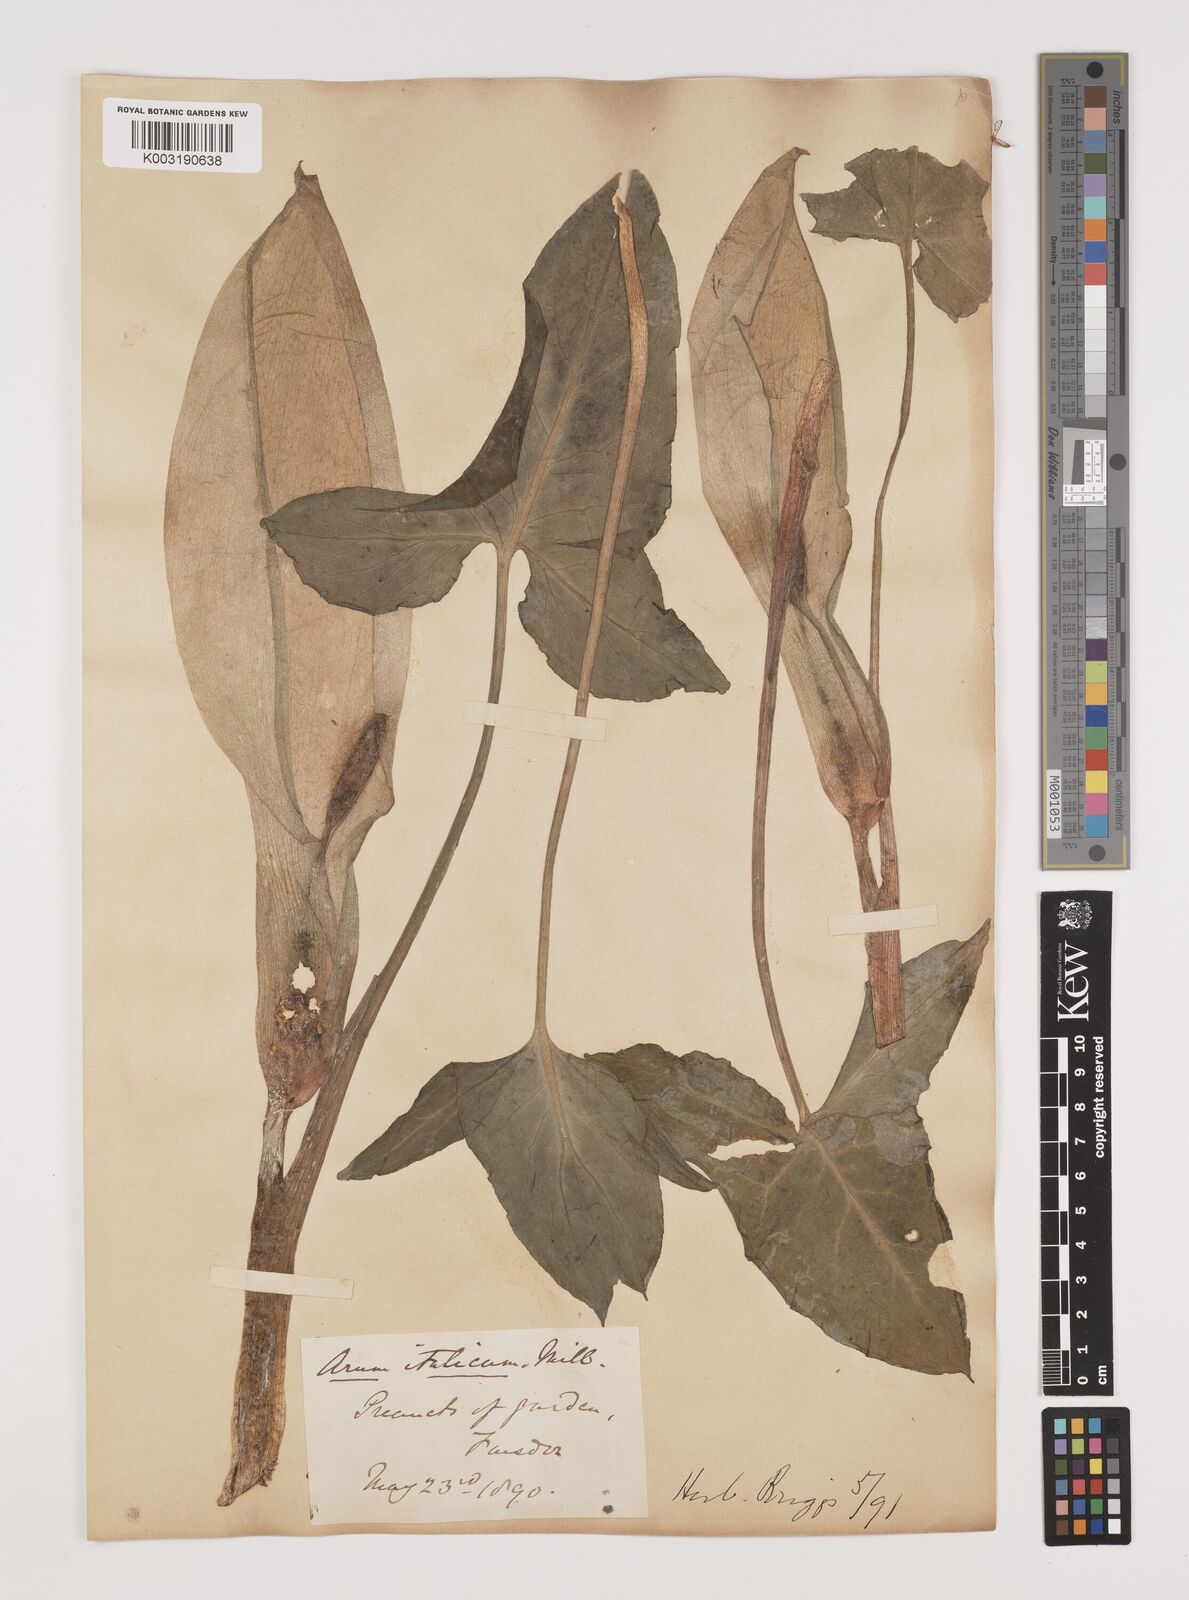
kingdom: Plantae
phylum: Tracheophyta
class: Liliopsida
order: Alismatales
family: Araceae
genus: Arum
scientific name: Arum italicum
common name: Italian lords-and-ladies
